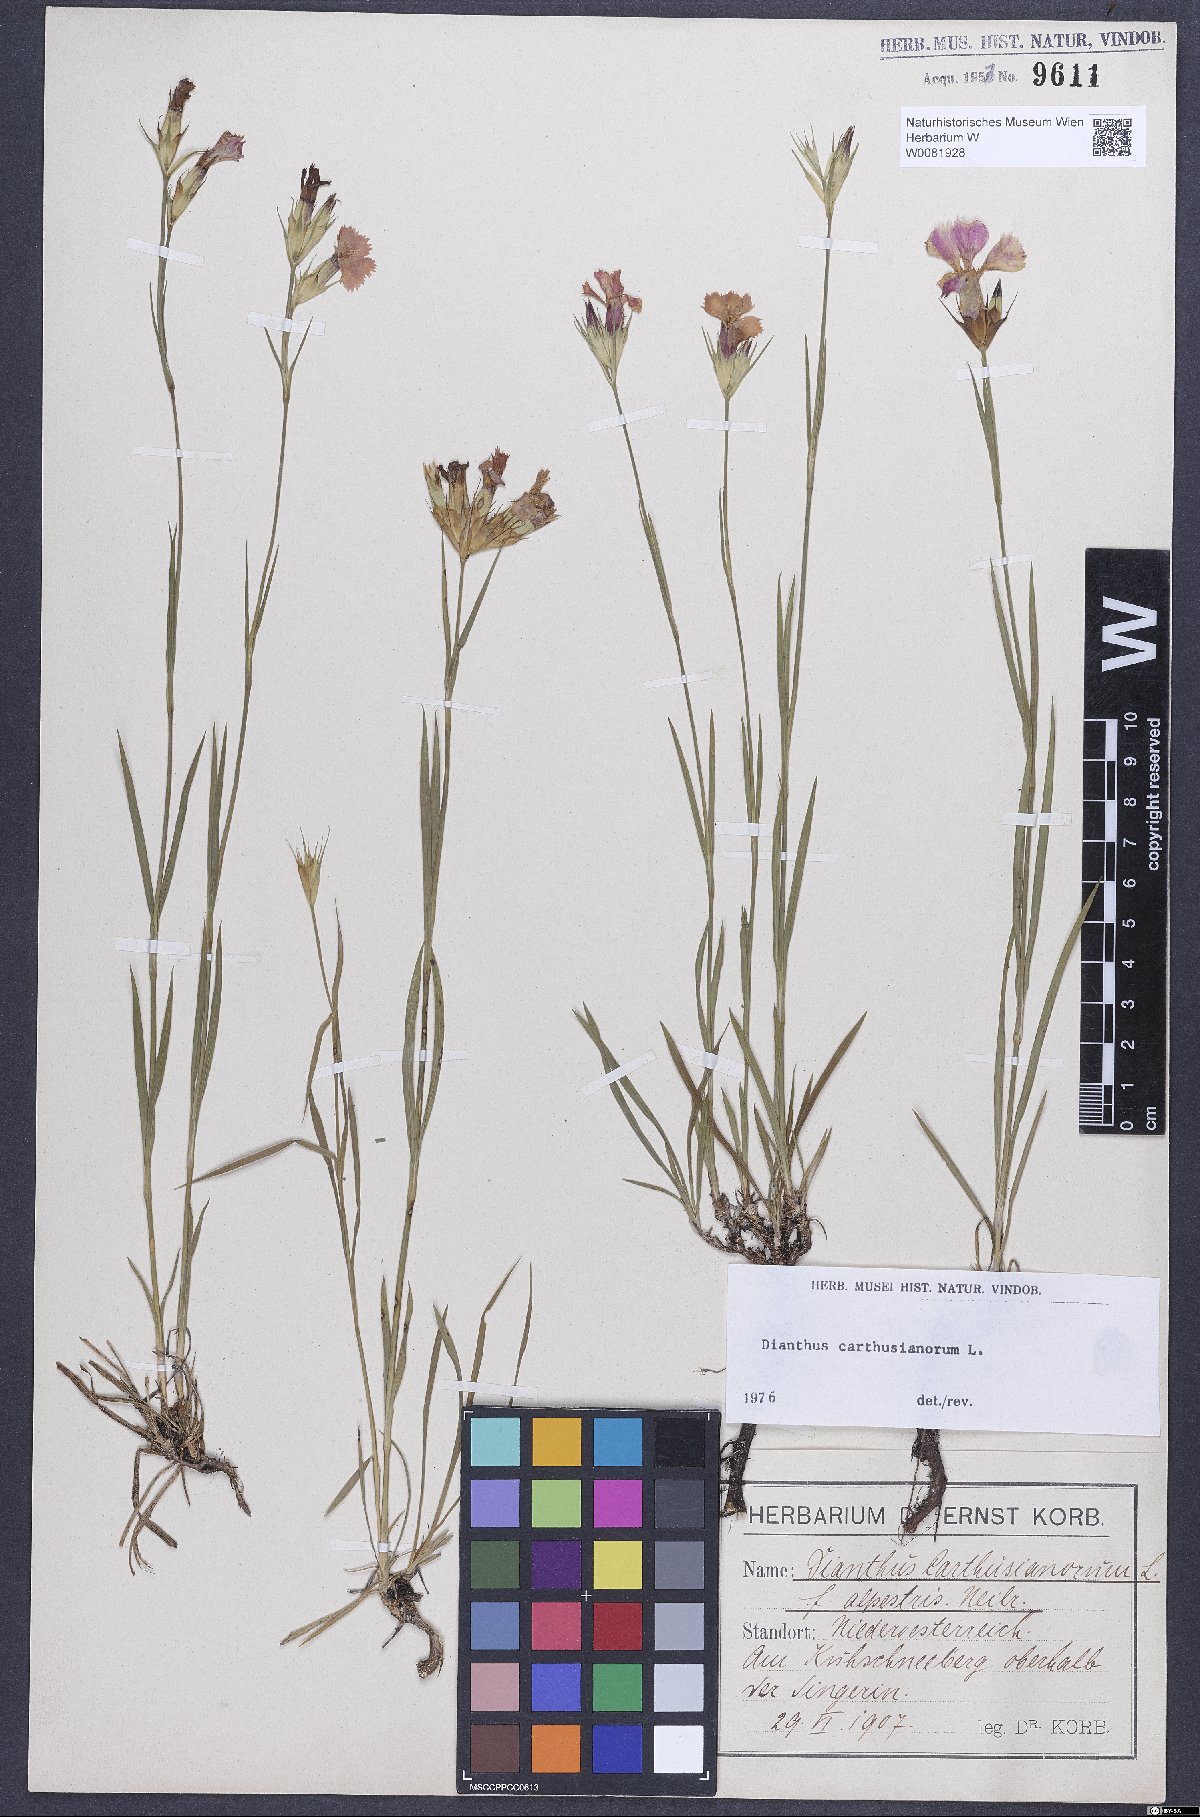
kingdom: Plantae
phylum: Tracheophyta
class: Magnoliopsida
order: Caryophyllales
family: Caryophyllaceae
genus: Dianthus
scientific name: Dianthus carthusianorum
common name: Carthusian pink
